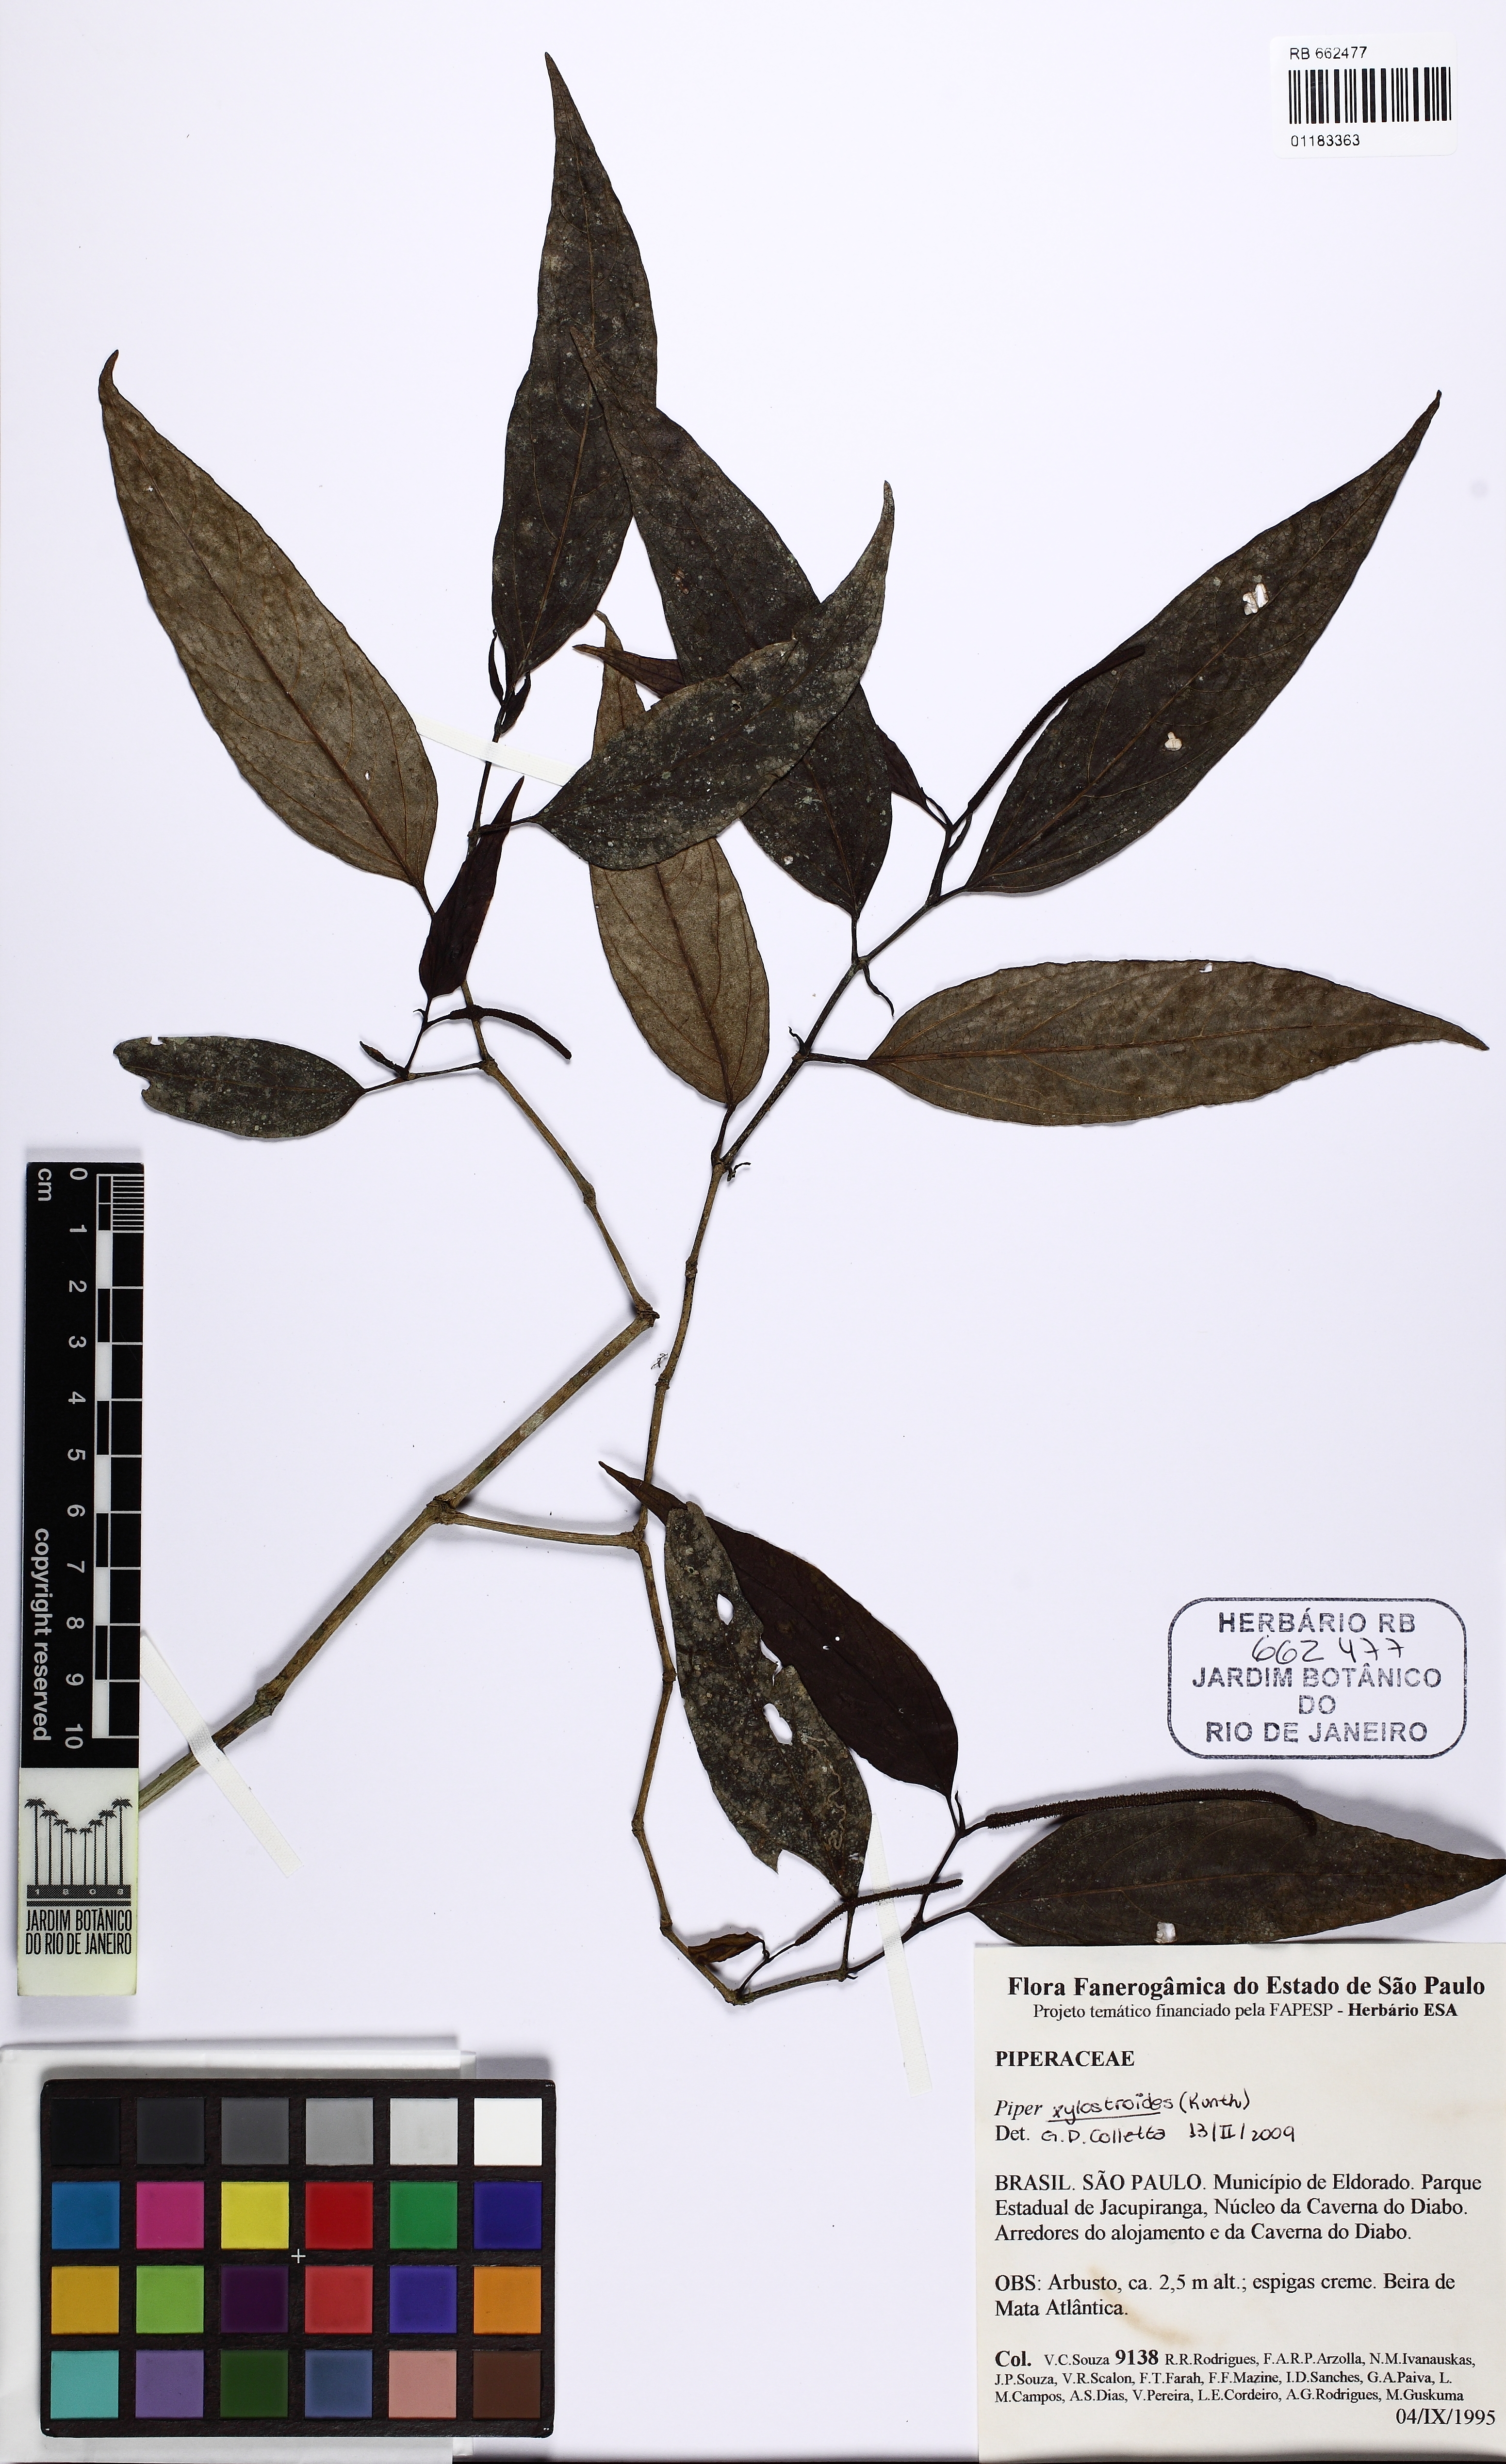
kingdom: Plantae
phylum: Tracheophyta
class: Magnoliopsida
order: Piperales
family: Piperaceae
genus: Piper
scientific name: Piper xylosteoides
